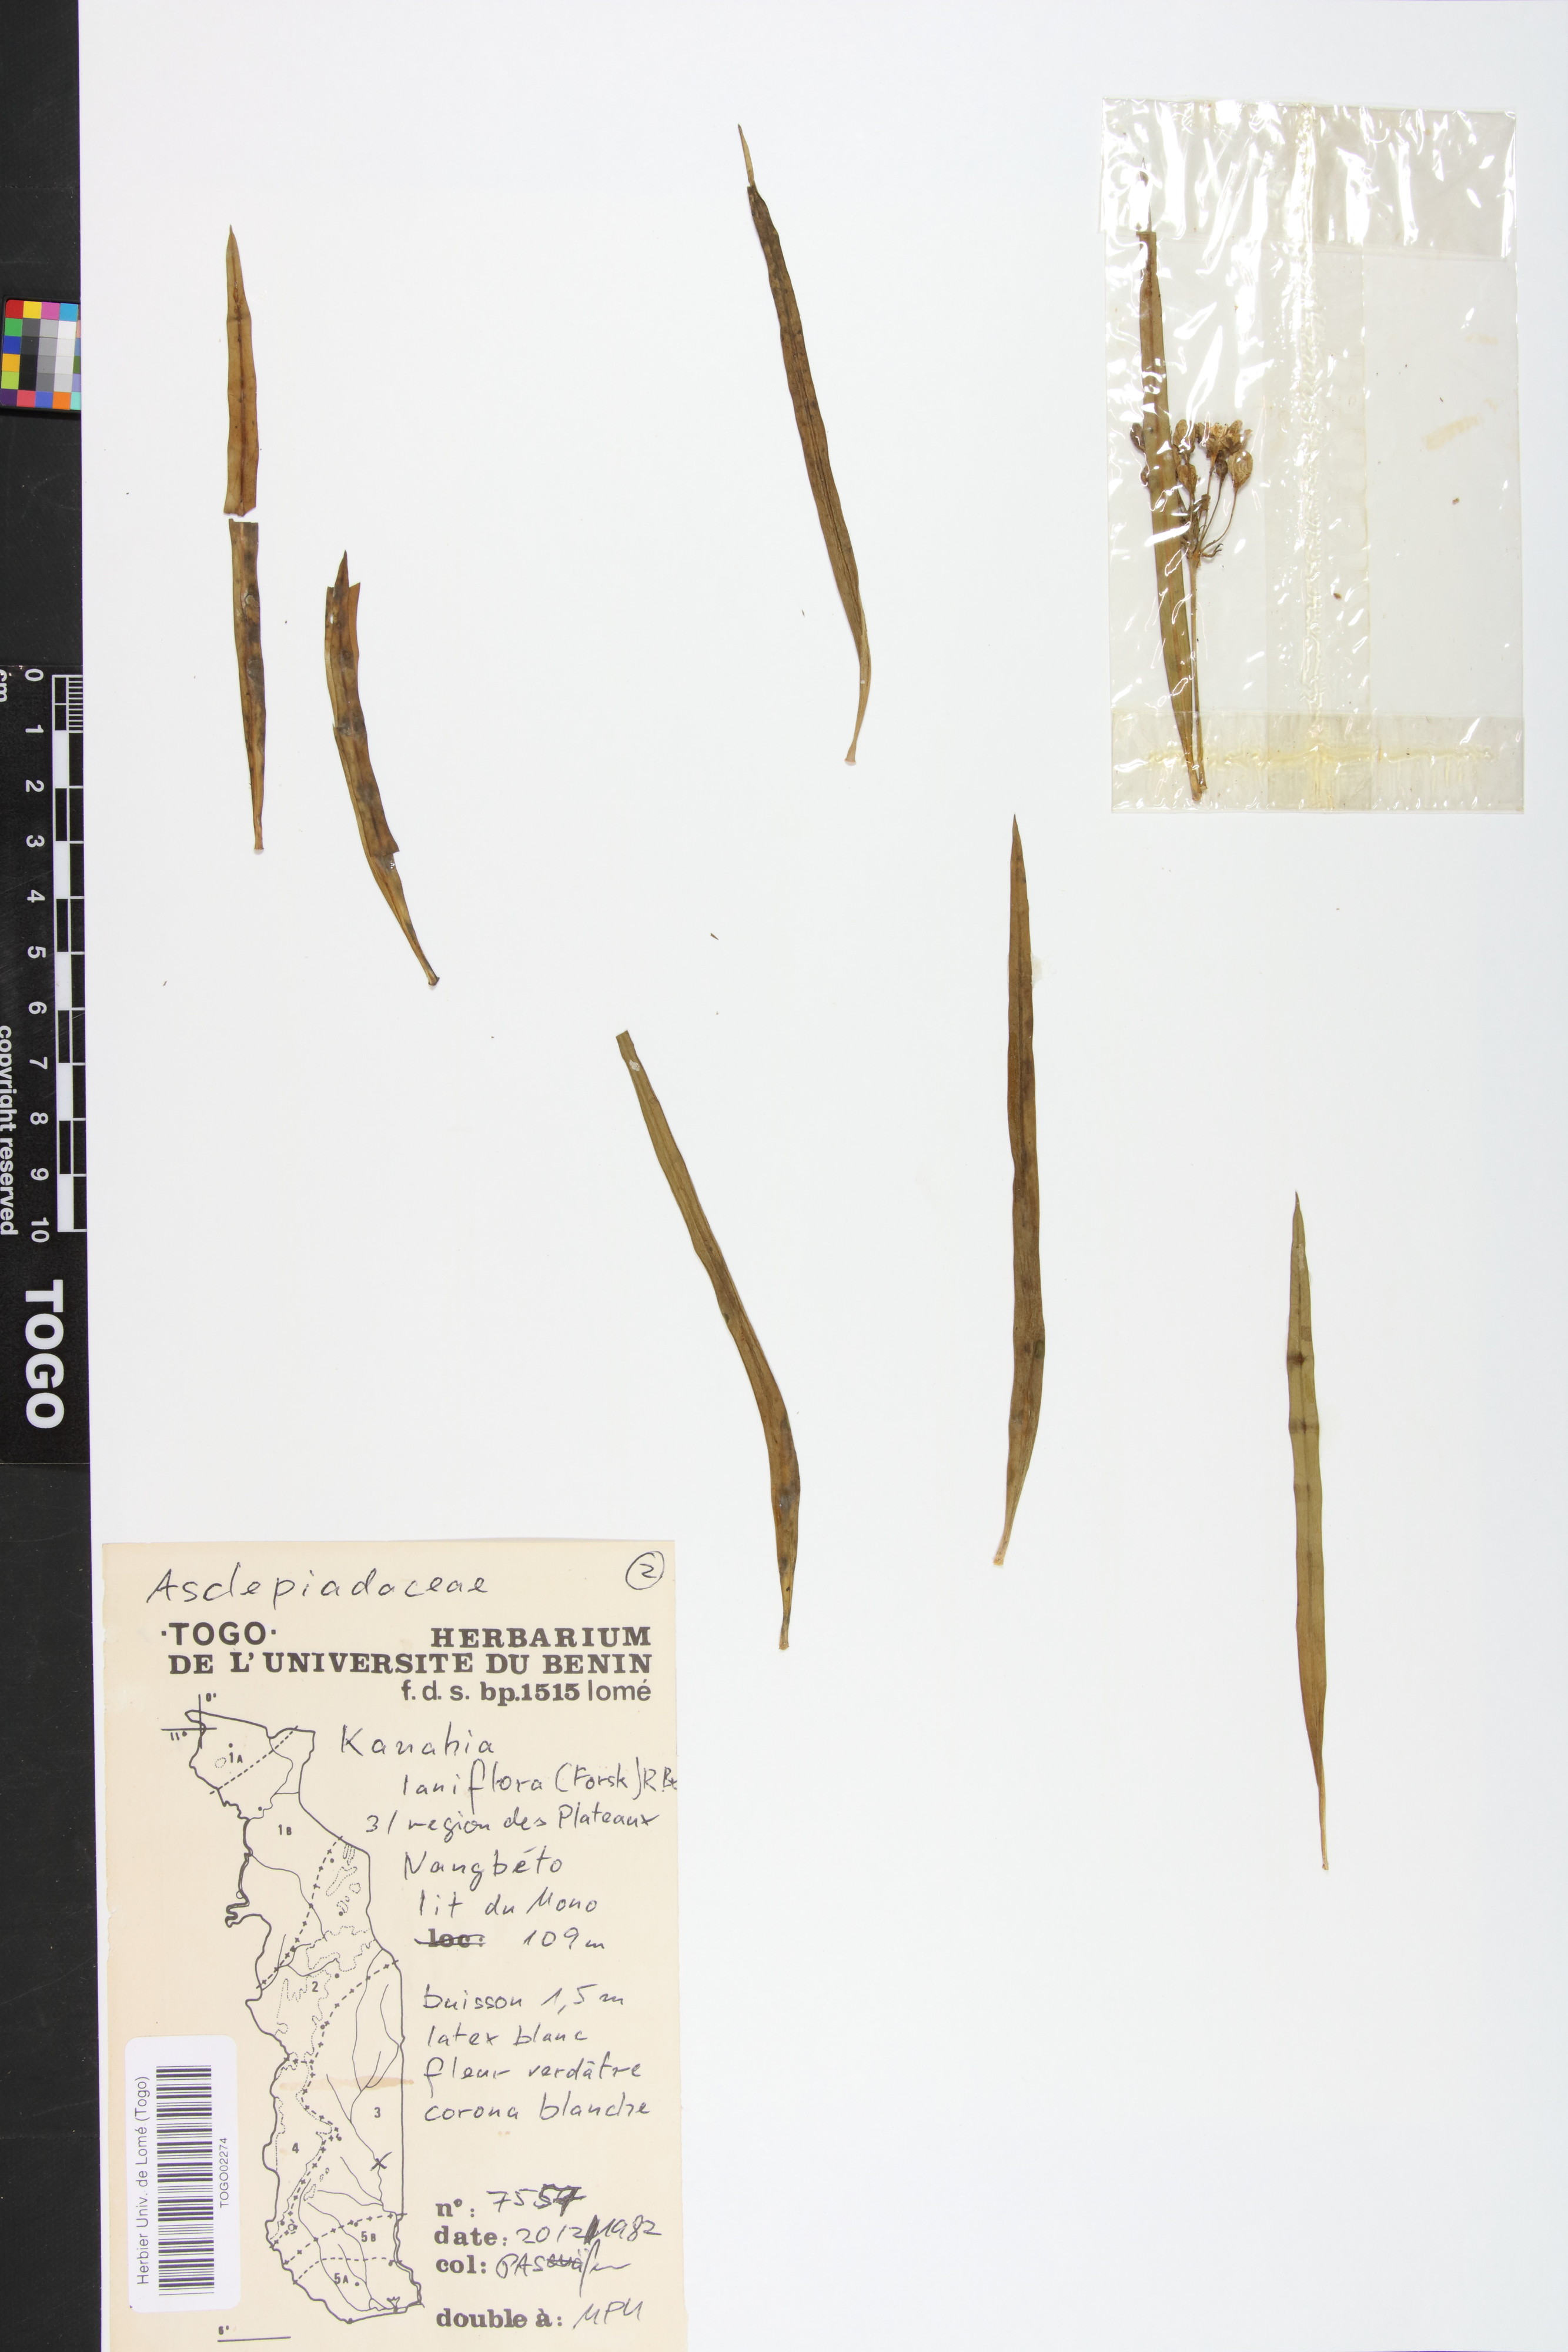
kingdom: Plantae
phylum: Tracheophyta
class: Magnoliopsida
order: Gentianales
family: Apocynaceae
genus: Kanahia
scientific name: Kanahia laniflora
